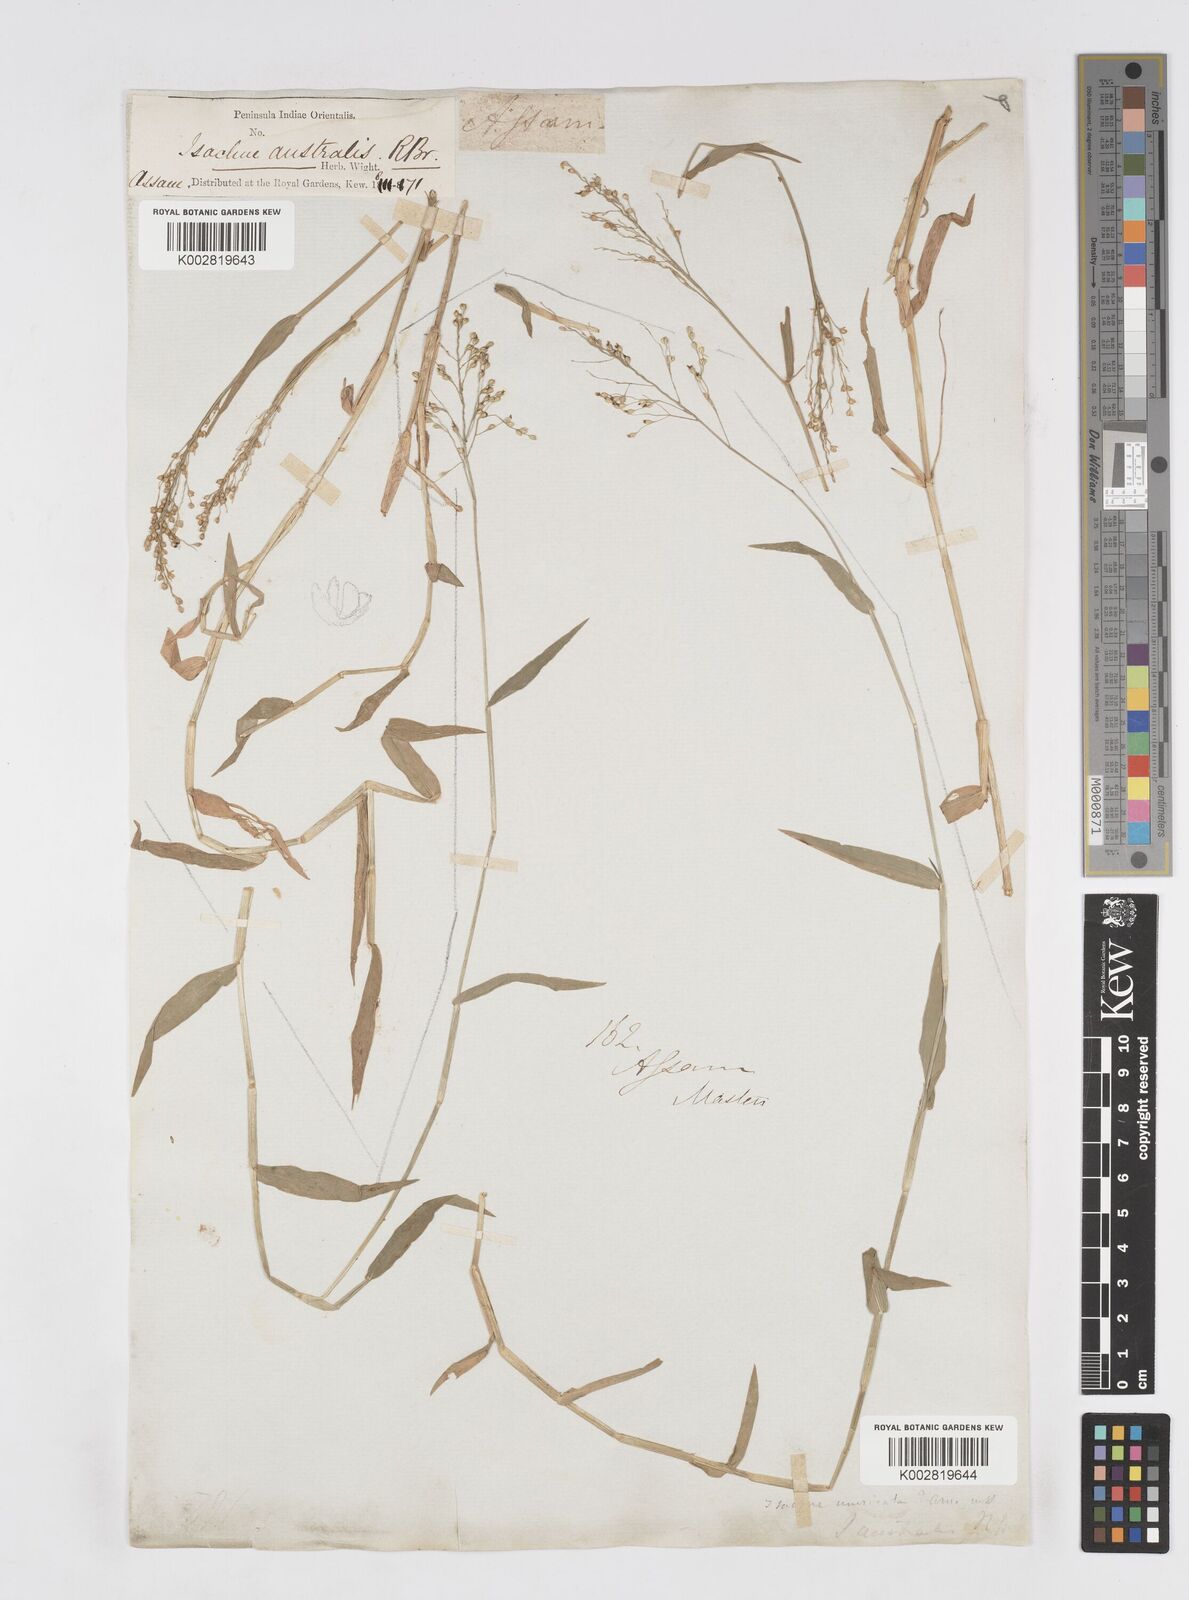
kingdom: Plantae
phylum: Tracheophyta
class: Liliopsida
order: Poales
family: Poaceae
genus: Isachne
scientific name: Isachne globosa
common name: Swamp millet
